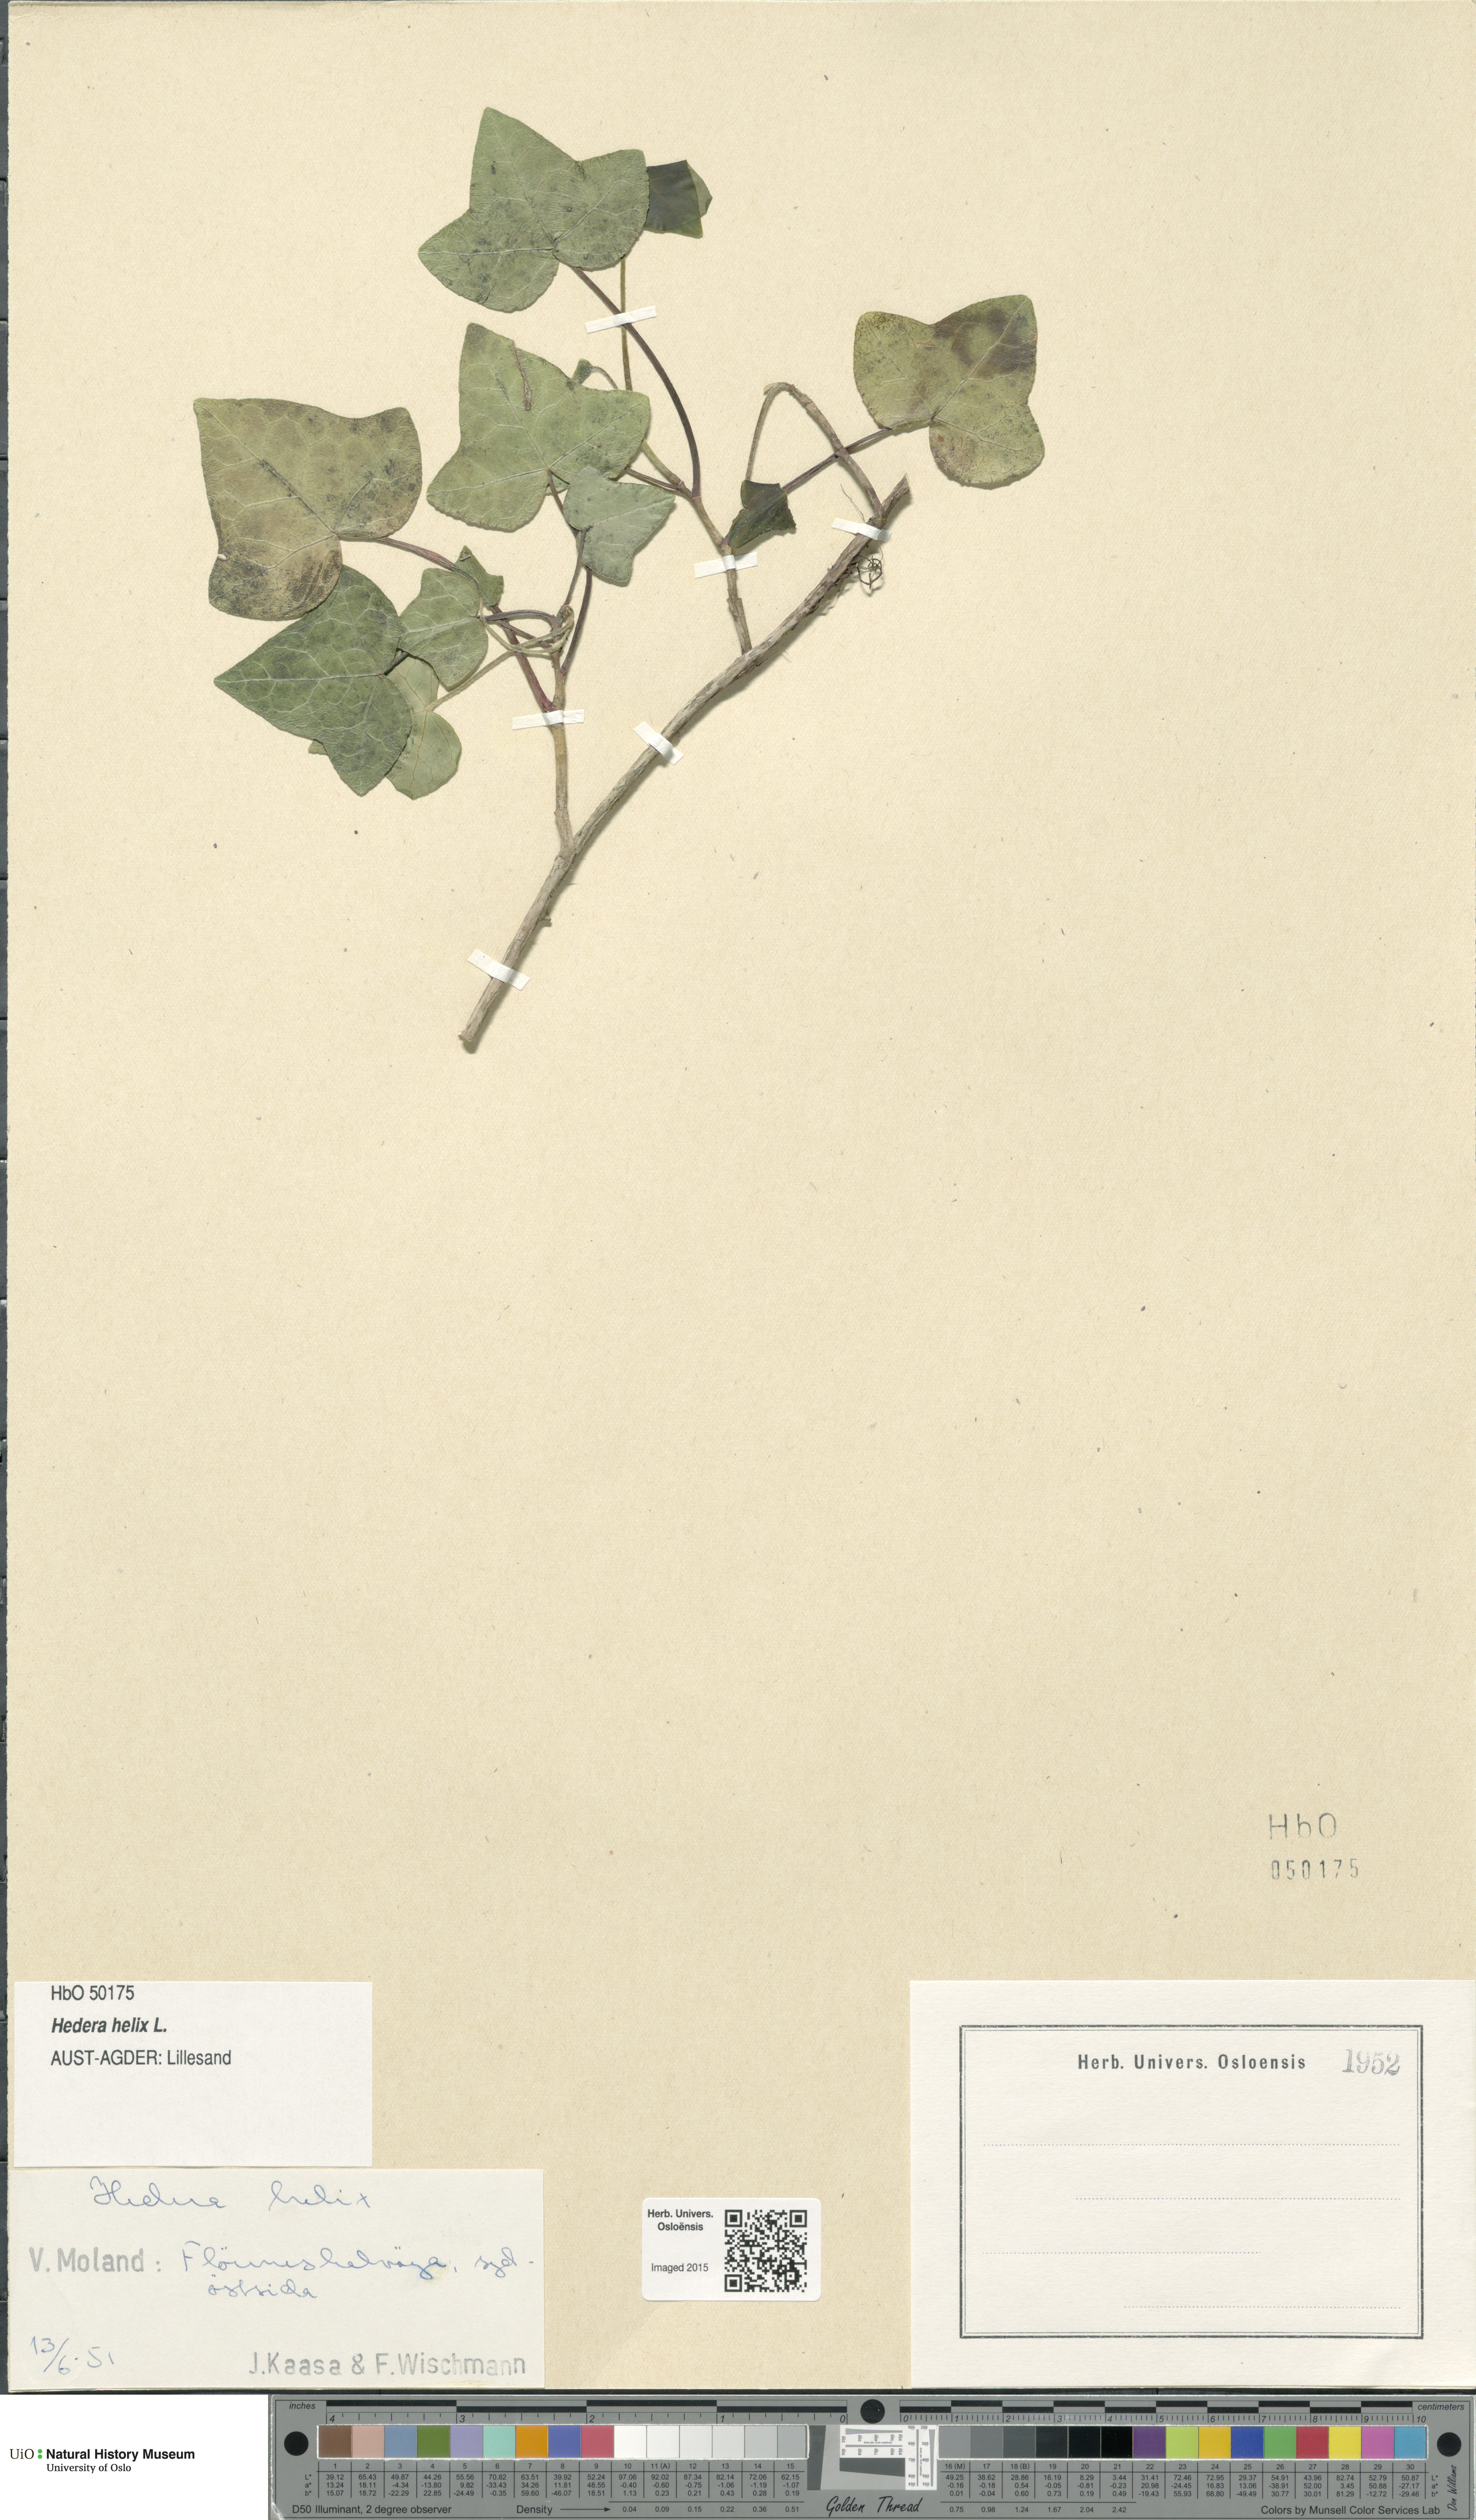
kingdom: Plantae
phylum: Tracheophyta
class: Magnoliopsida
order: Apiales
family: Araliaceae
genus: Hedera
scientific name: Hedera helix
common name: Ivy
